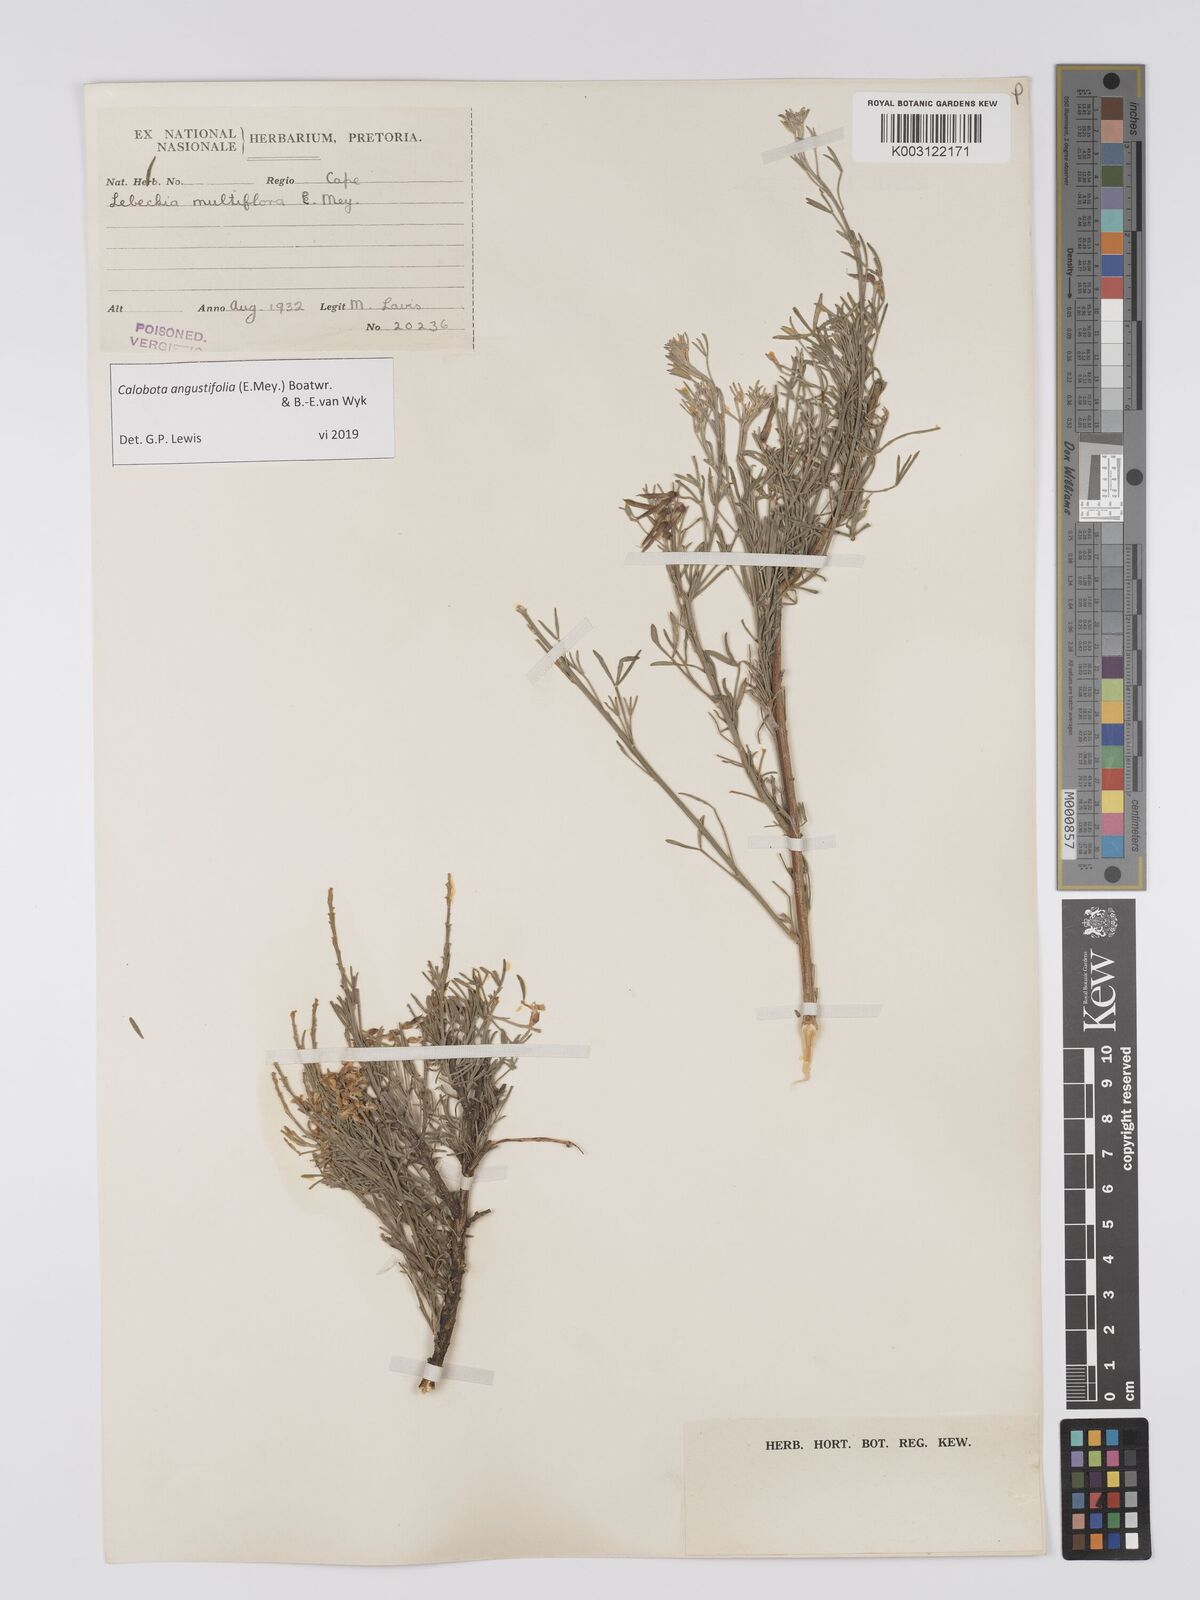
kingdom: Plantae
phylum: Tracheophyta
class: Magnoliopsida
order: Fabales
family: Fabaceae
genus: Calobota
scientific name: Calobota angustifolia
